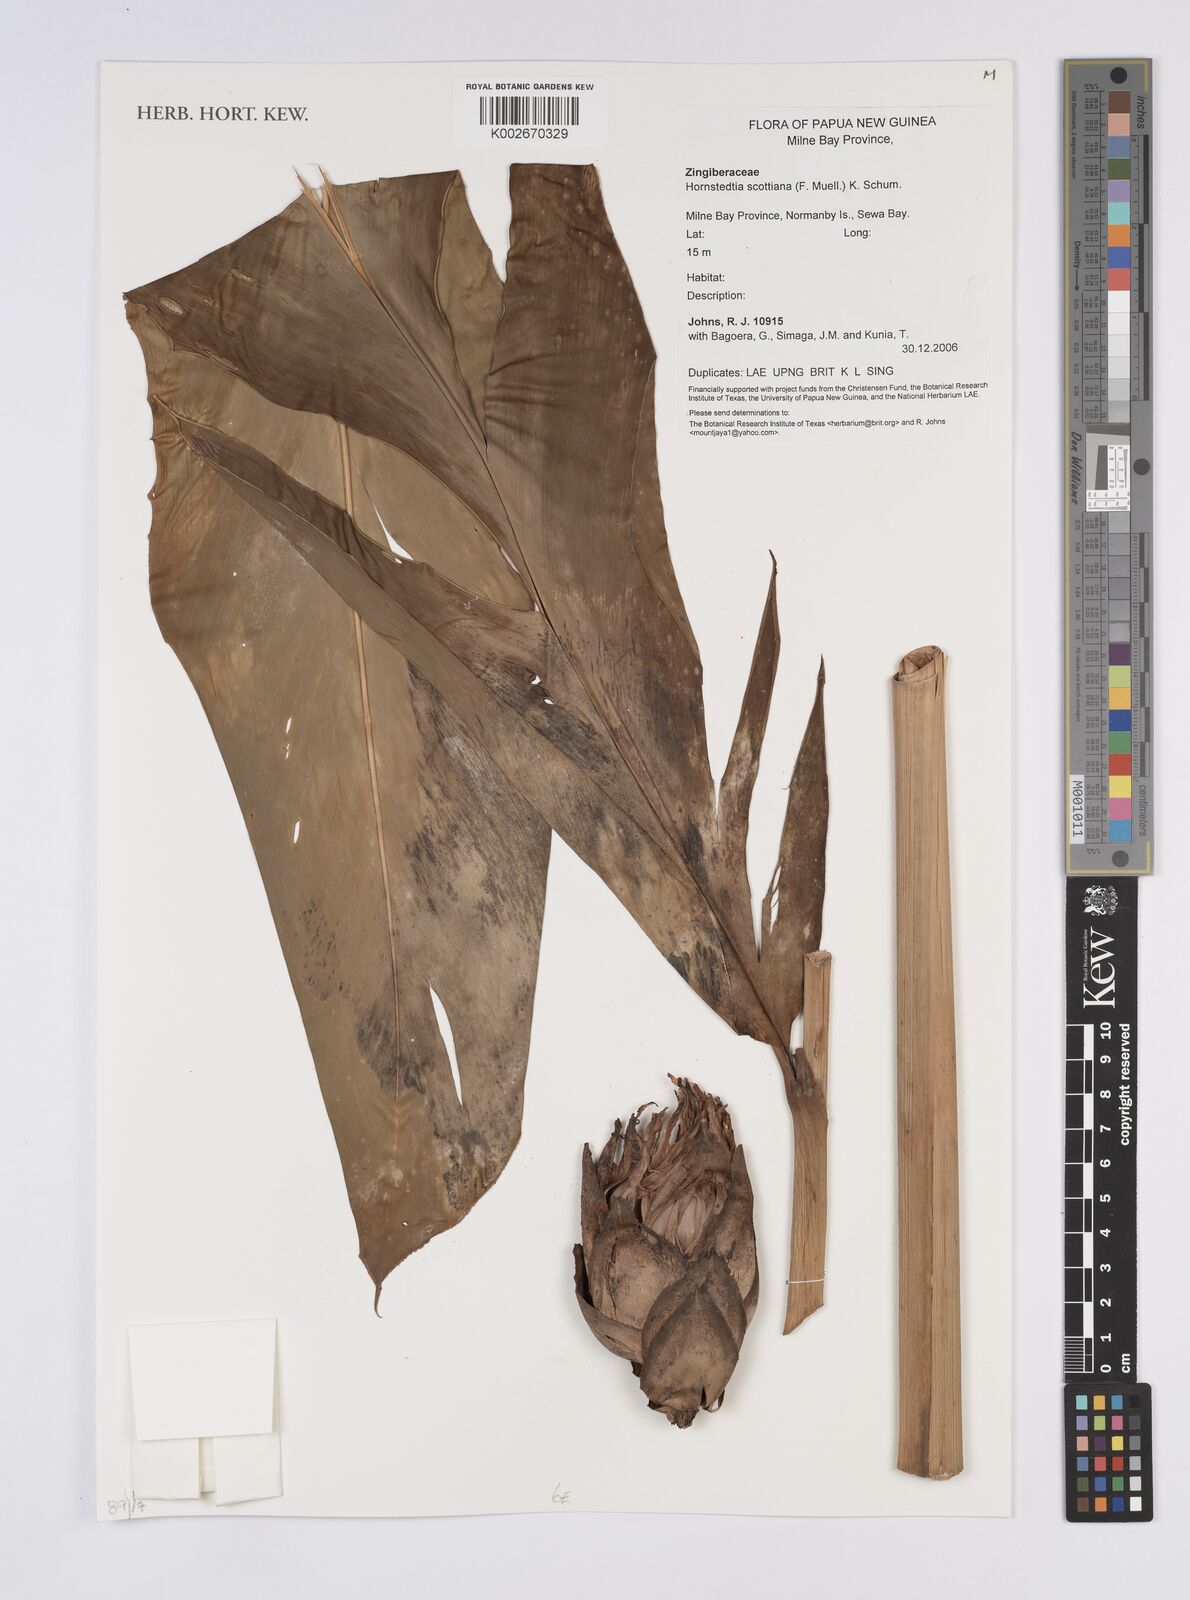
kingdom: Plantae
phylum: Tracheophyta
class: Liliopsida
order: Zingiberales
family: Zingiberaceae
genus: Hornstedtia
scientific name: Hornstedtia scottiana
